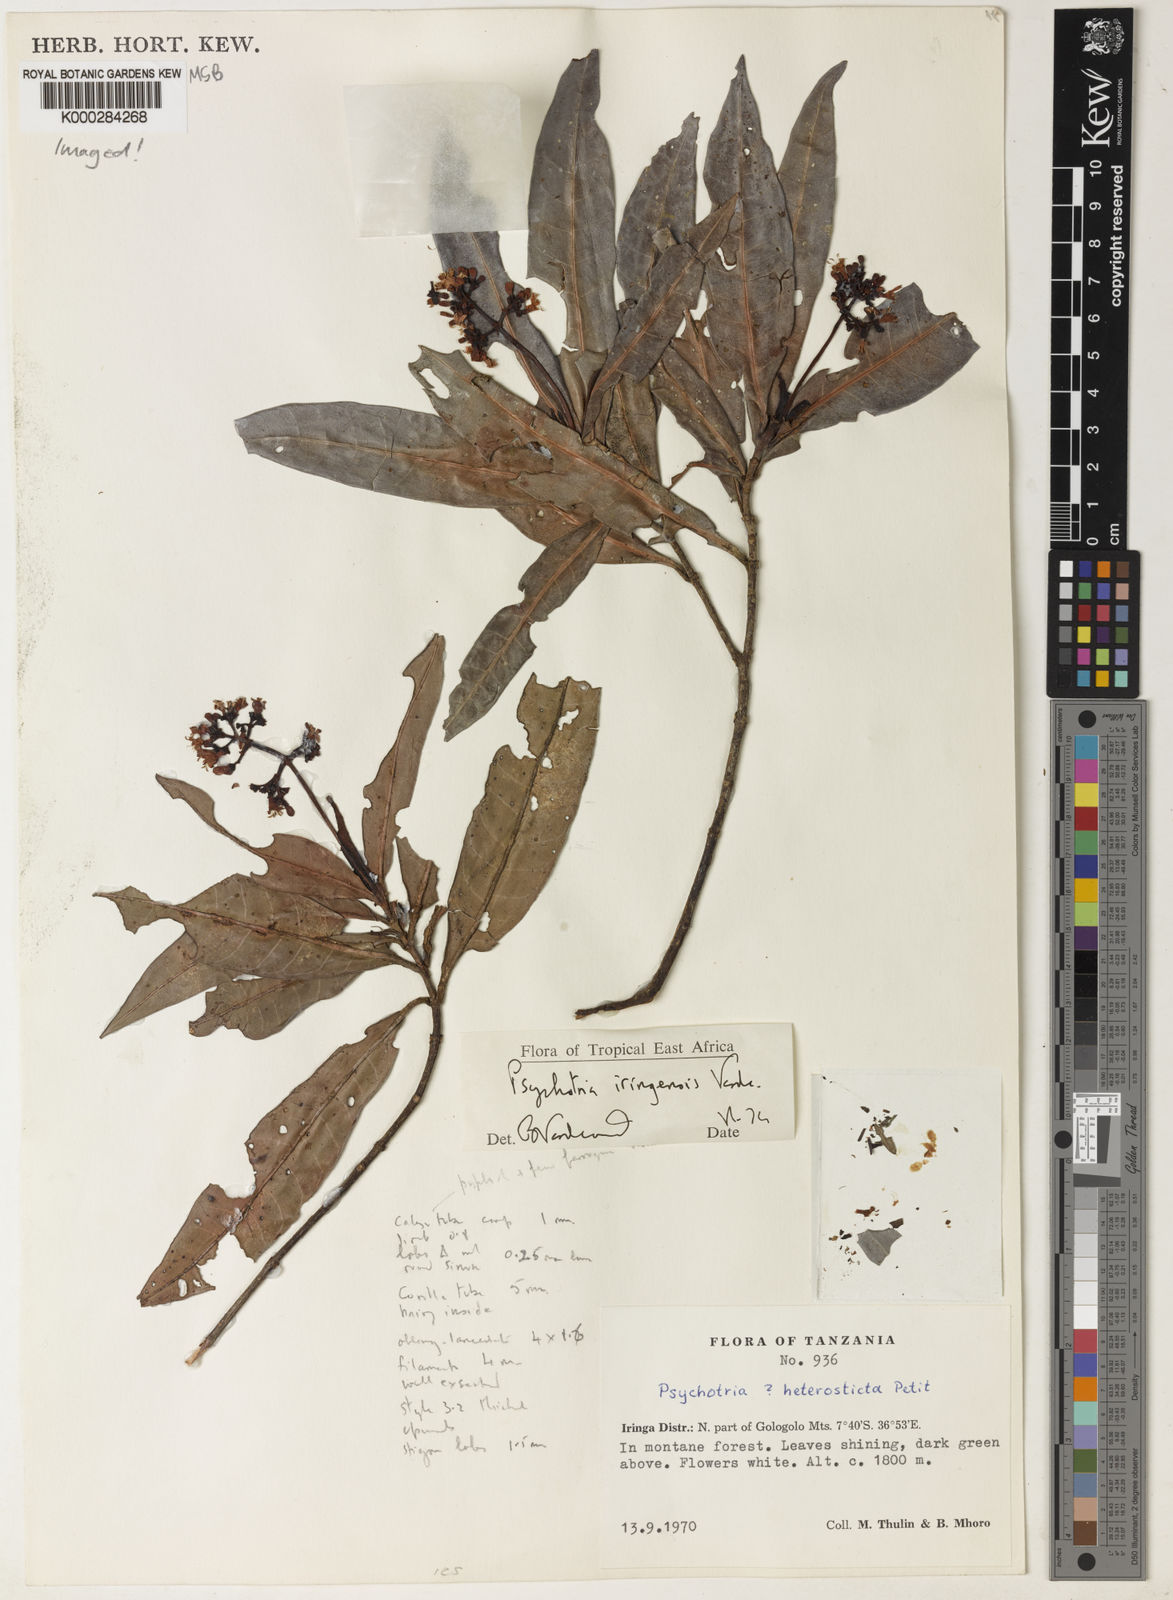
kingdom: Plantae
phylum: Tracheophyta
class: Magnoliopsida
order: Gentianales
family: Rubiaceae
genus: Psychotria
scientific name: Psychotria iringensis
